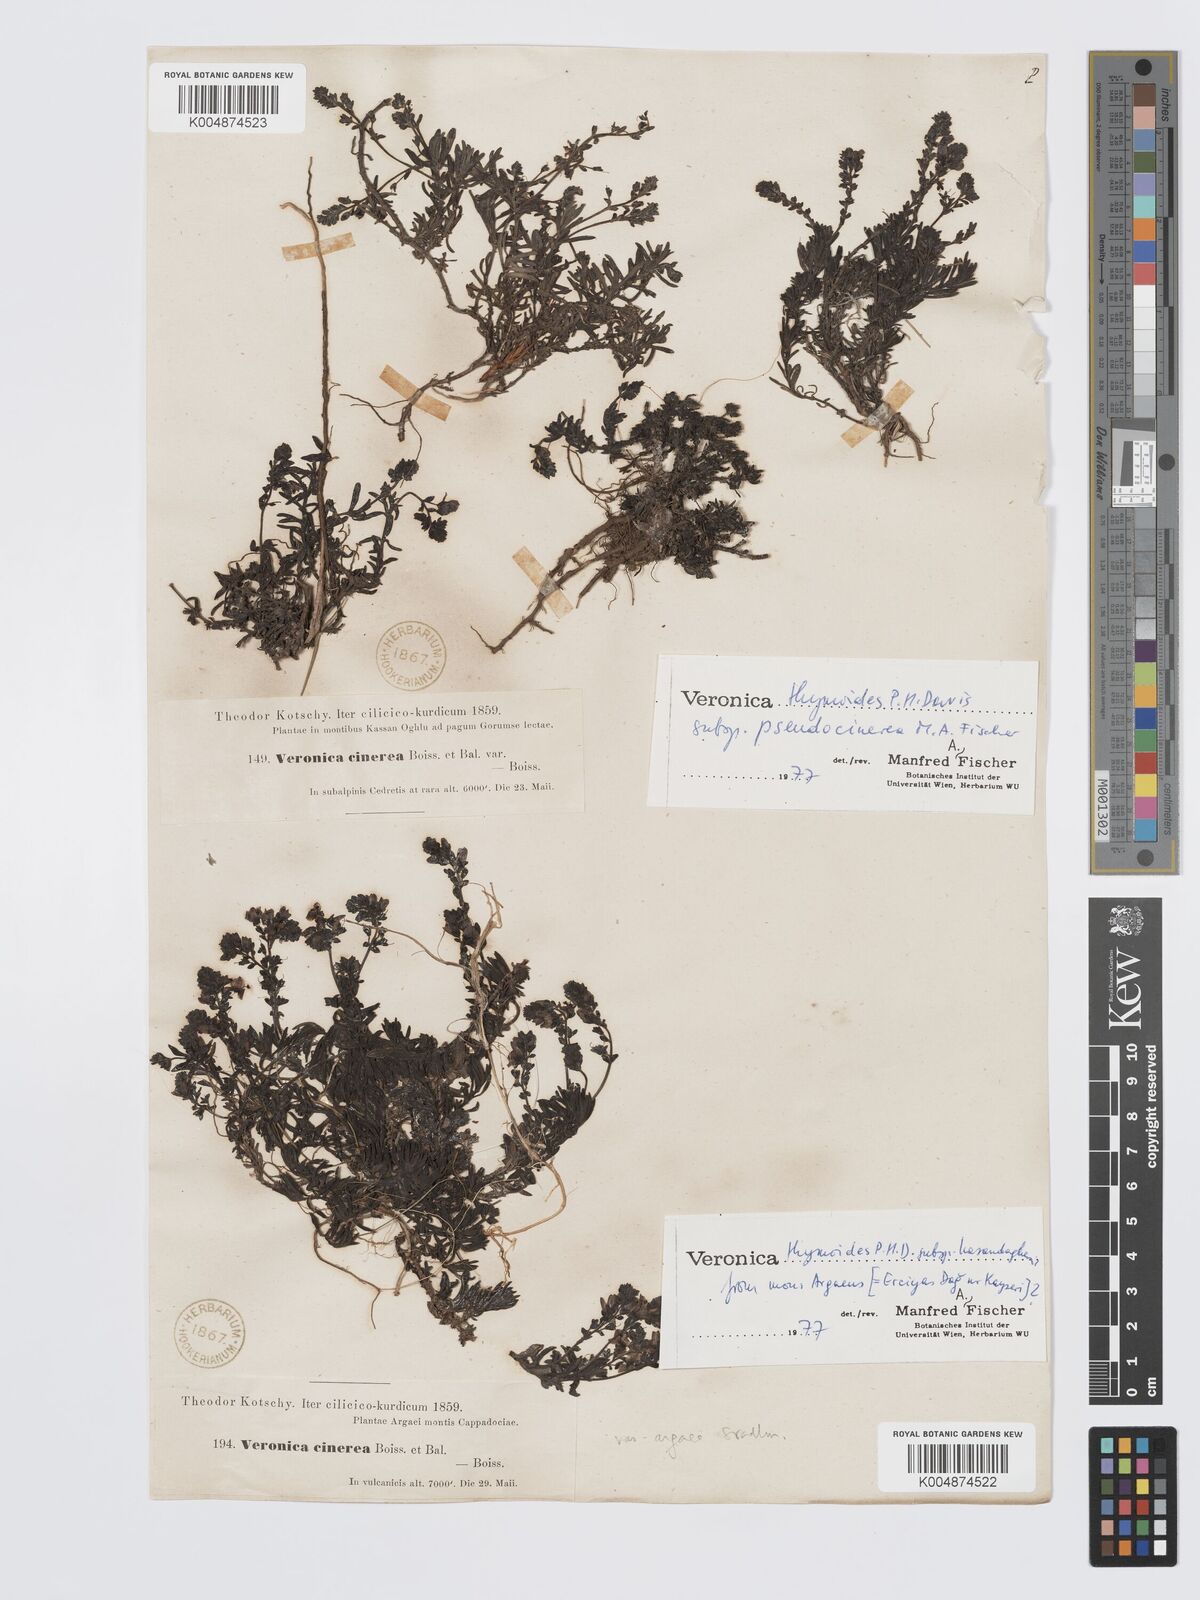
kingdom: Plantae
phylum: Tracheophyta
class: Magnoliopsida
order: Lamiales
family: Plantaginaceae
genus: Veronica
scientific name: Veronica thymoides
